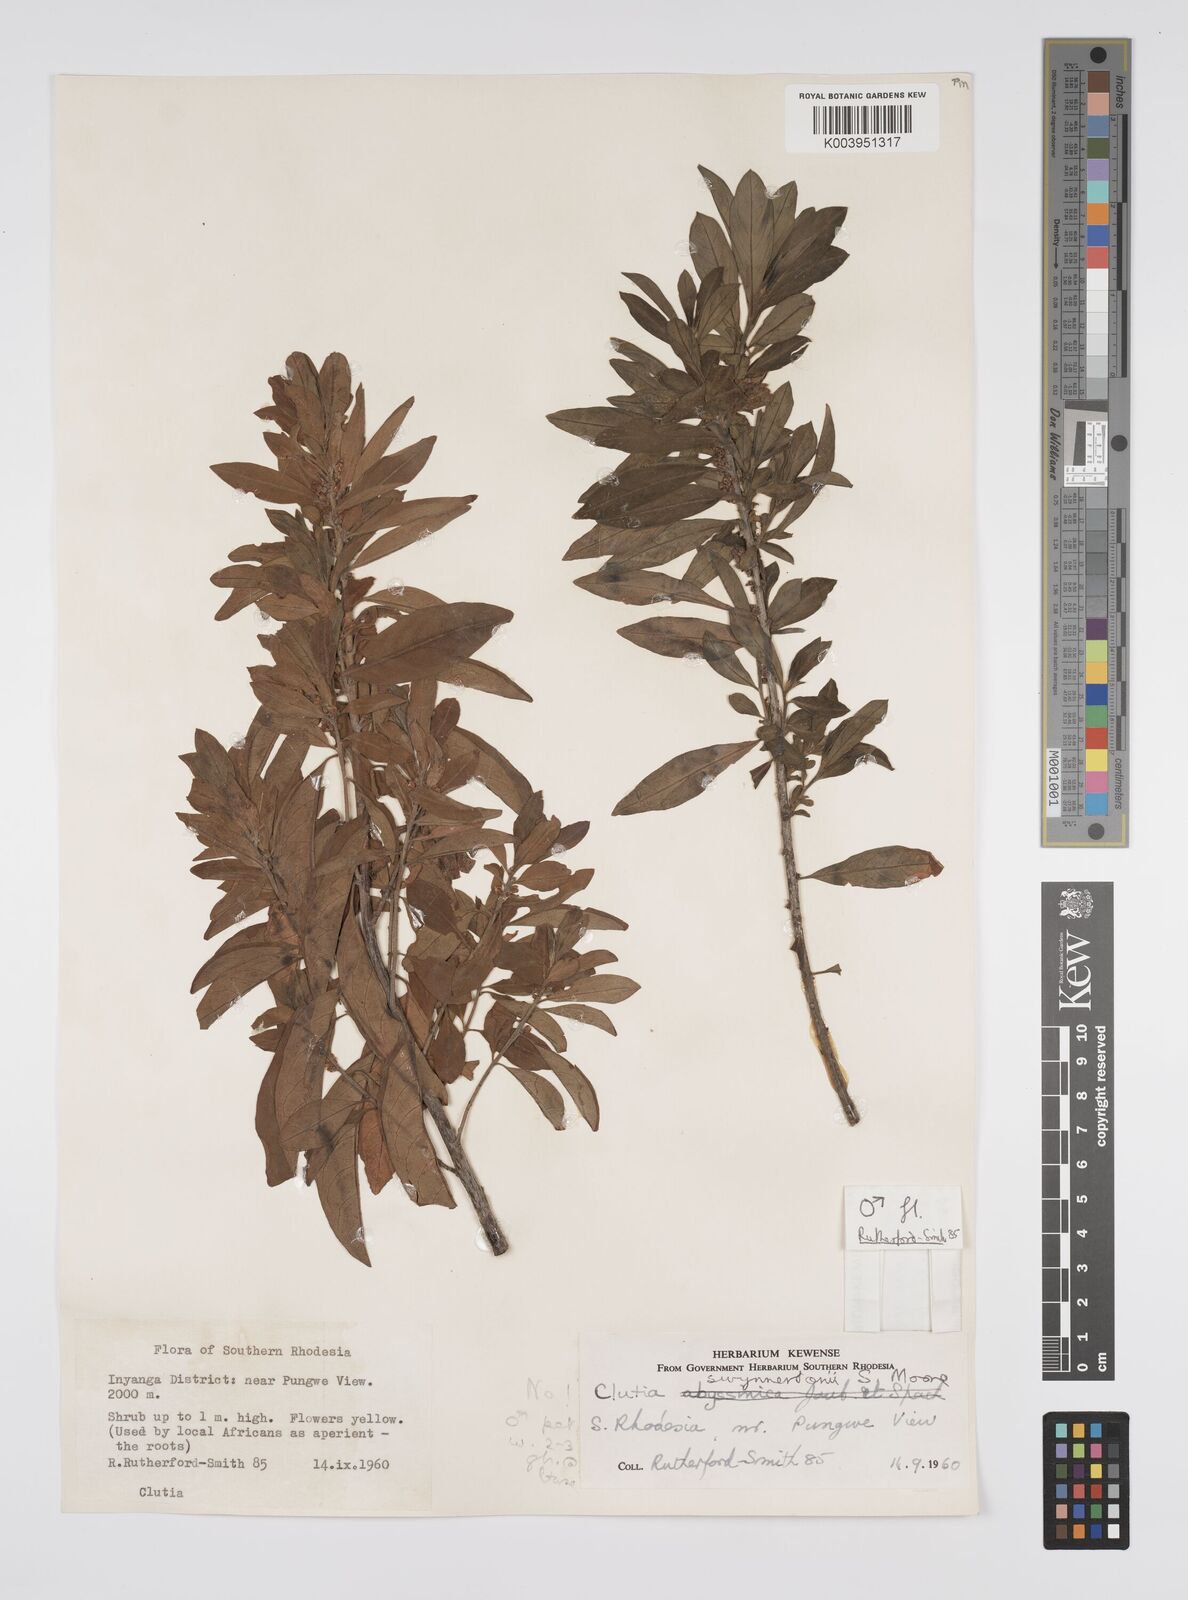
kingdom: Plantae
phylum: Tracheophyta
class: Magnoliopsida
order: Malpighiales
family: Peraceae
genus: Clutia
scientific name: Clutia swynnertonii
